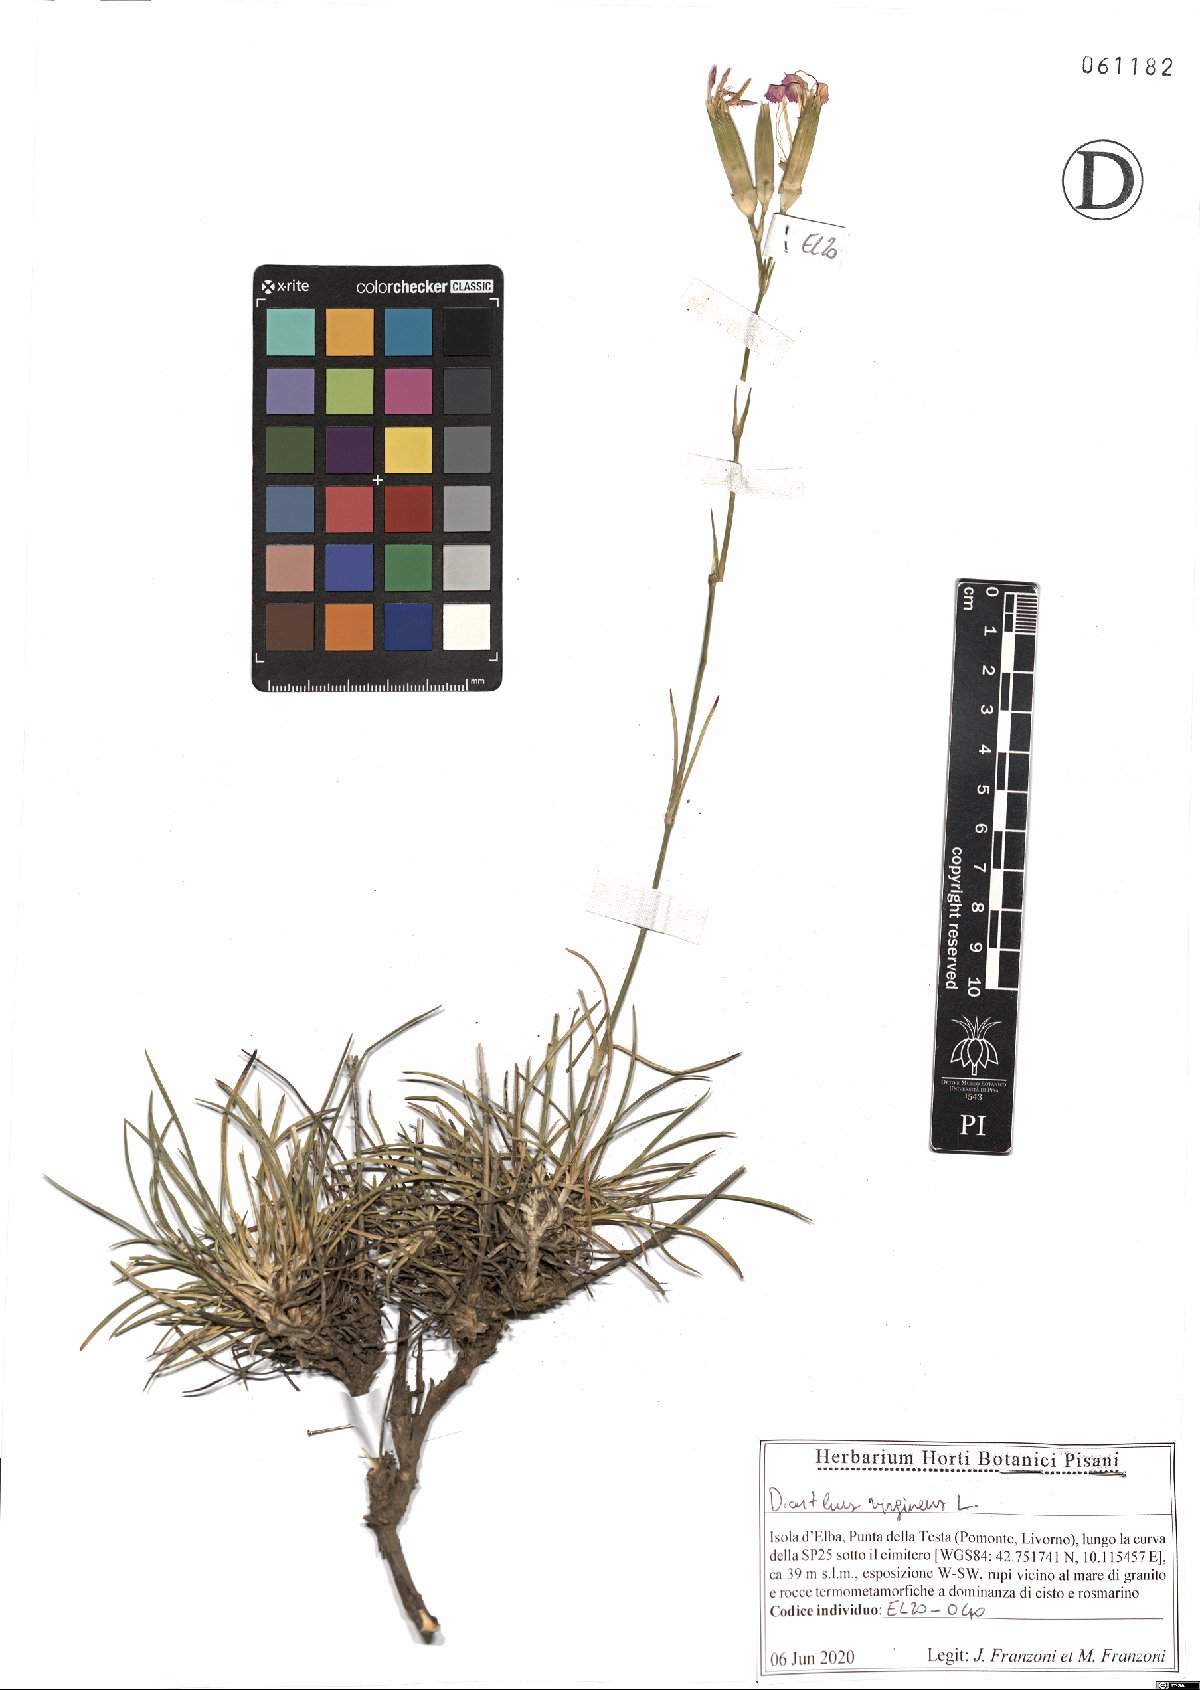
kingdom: Plantae
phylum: Tracheophyta
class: Magnoliopsida
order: Caryophyllales
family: Caryophyllaceae
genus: Dianthus
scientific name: Dianthus virgineus
